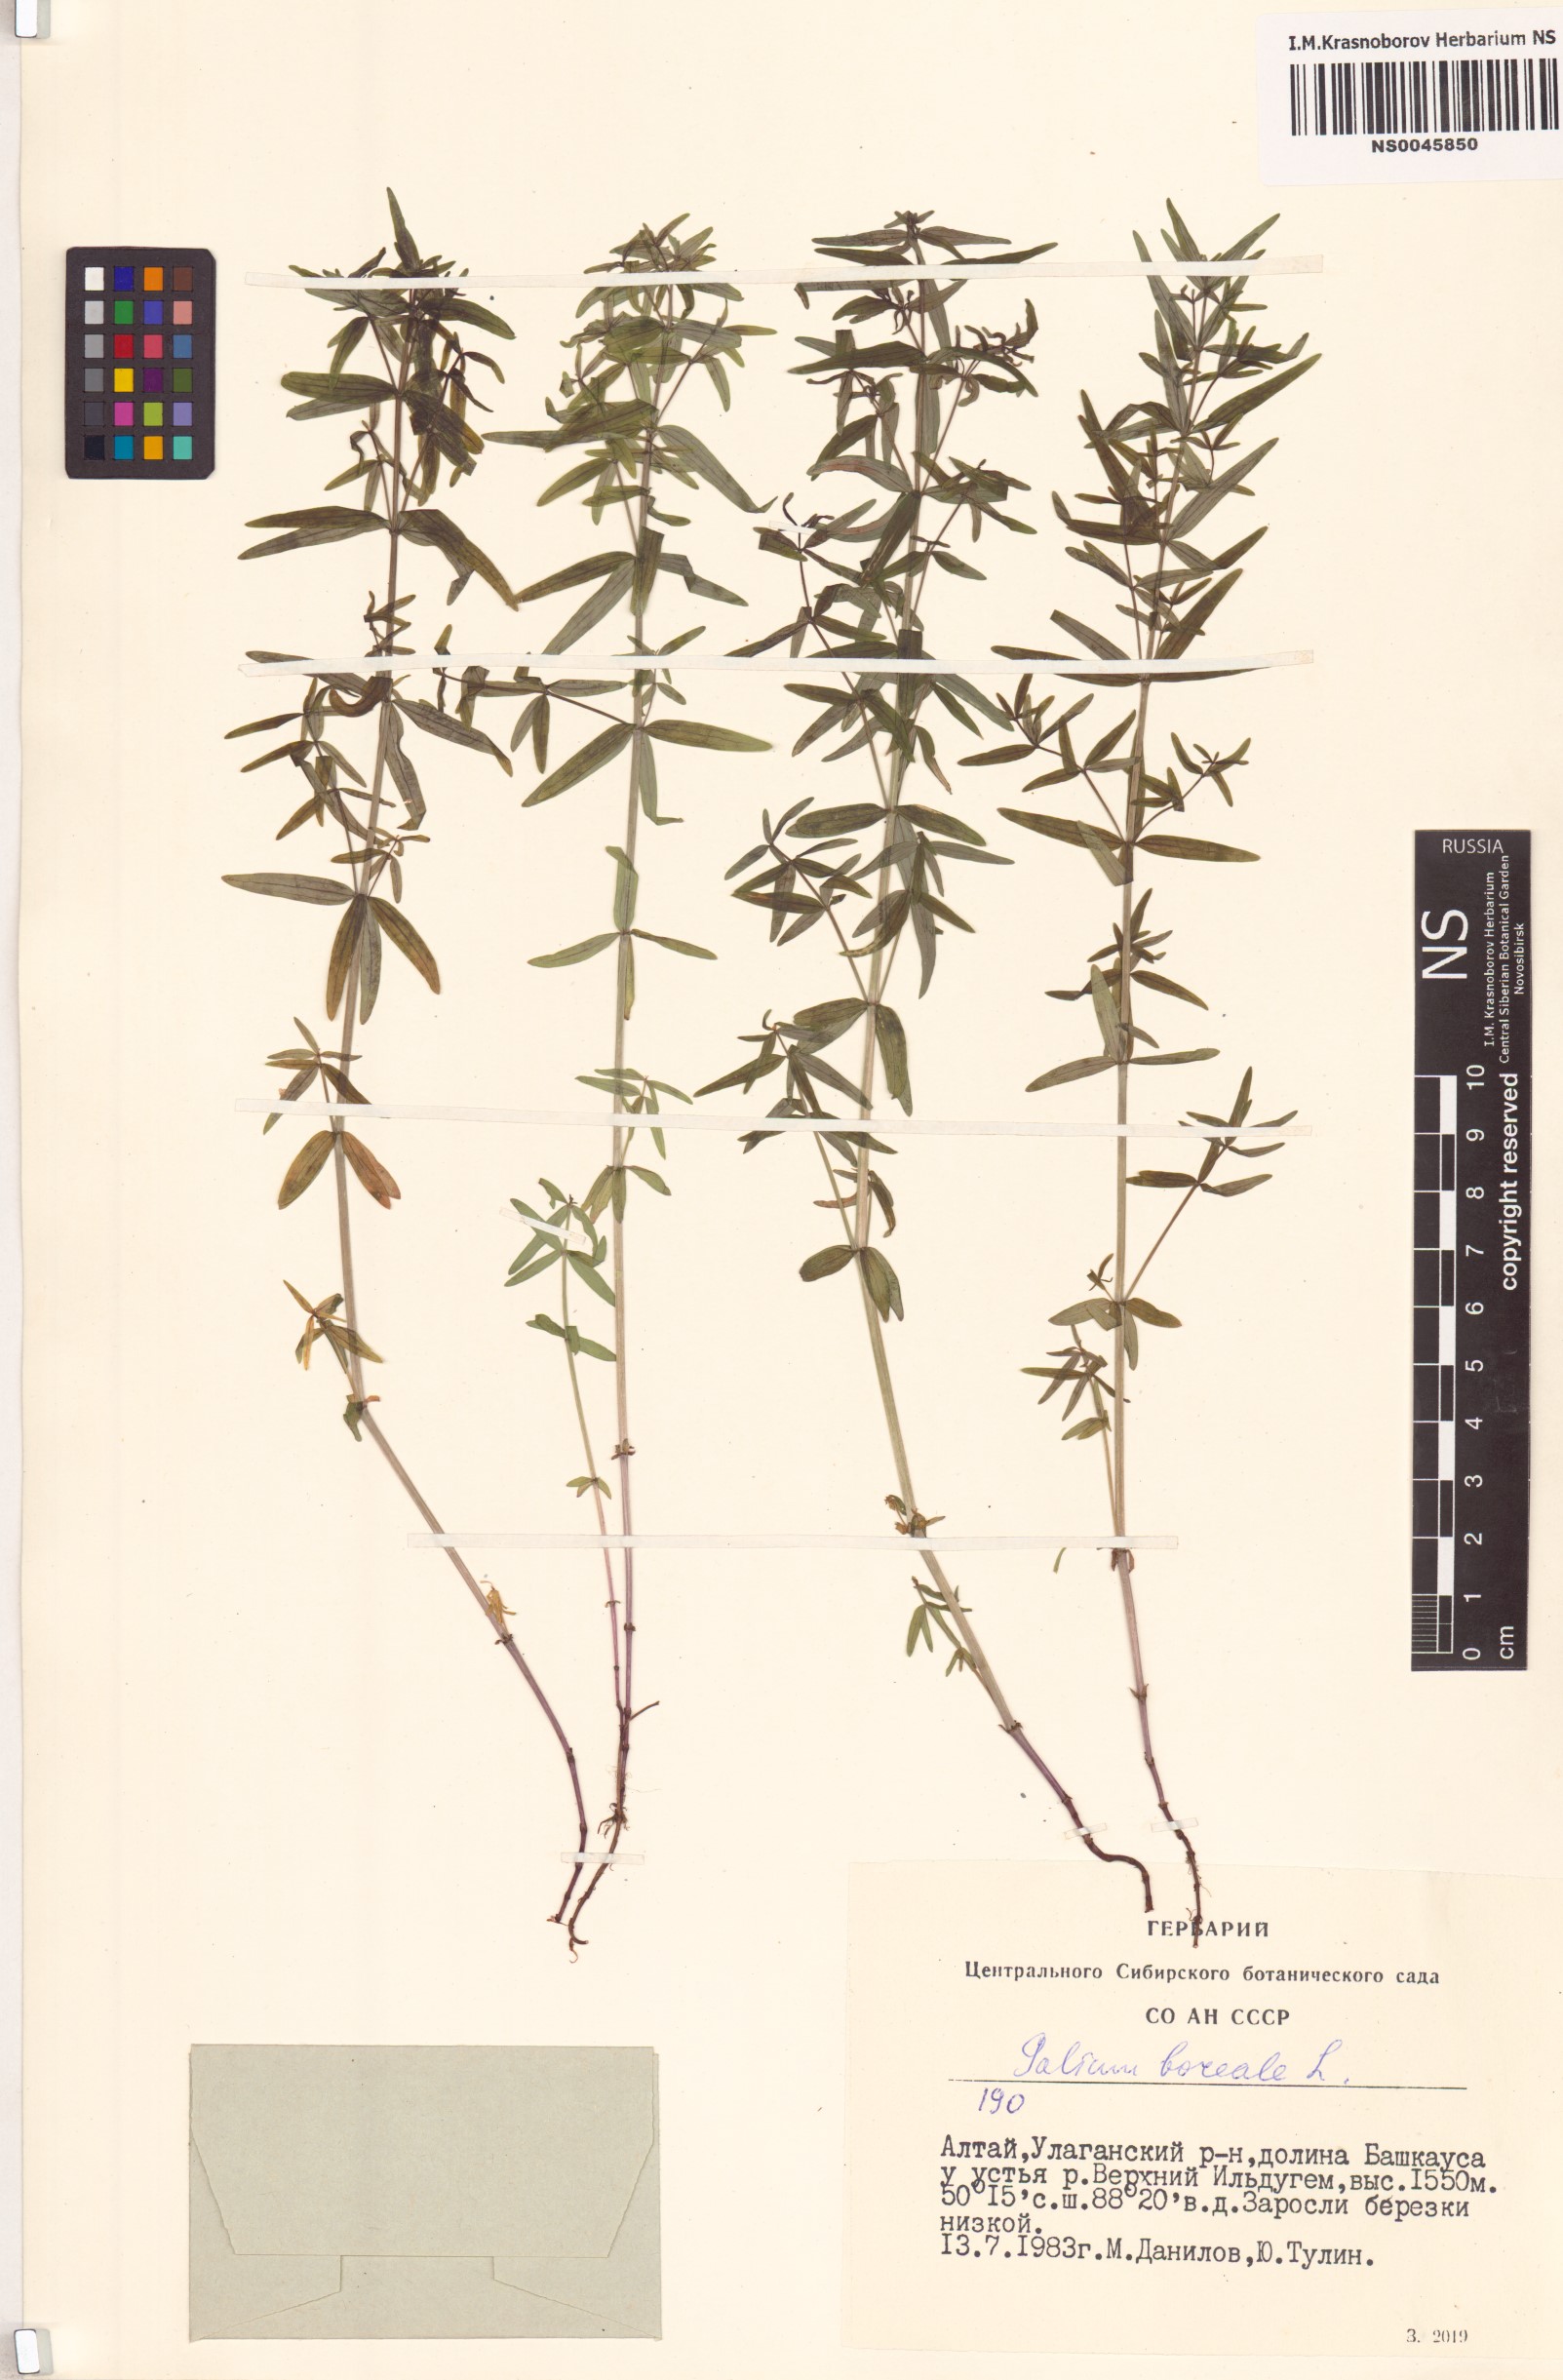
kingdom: Plantae
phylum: Tracheophyta
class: Magnoliopsida
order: Gentianales
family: Rubiaceae
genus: Galium
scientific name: Galium boreale
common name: Northern bedstraw
